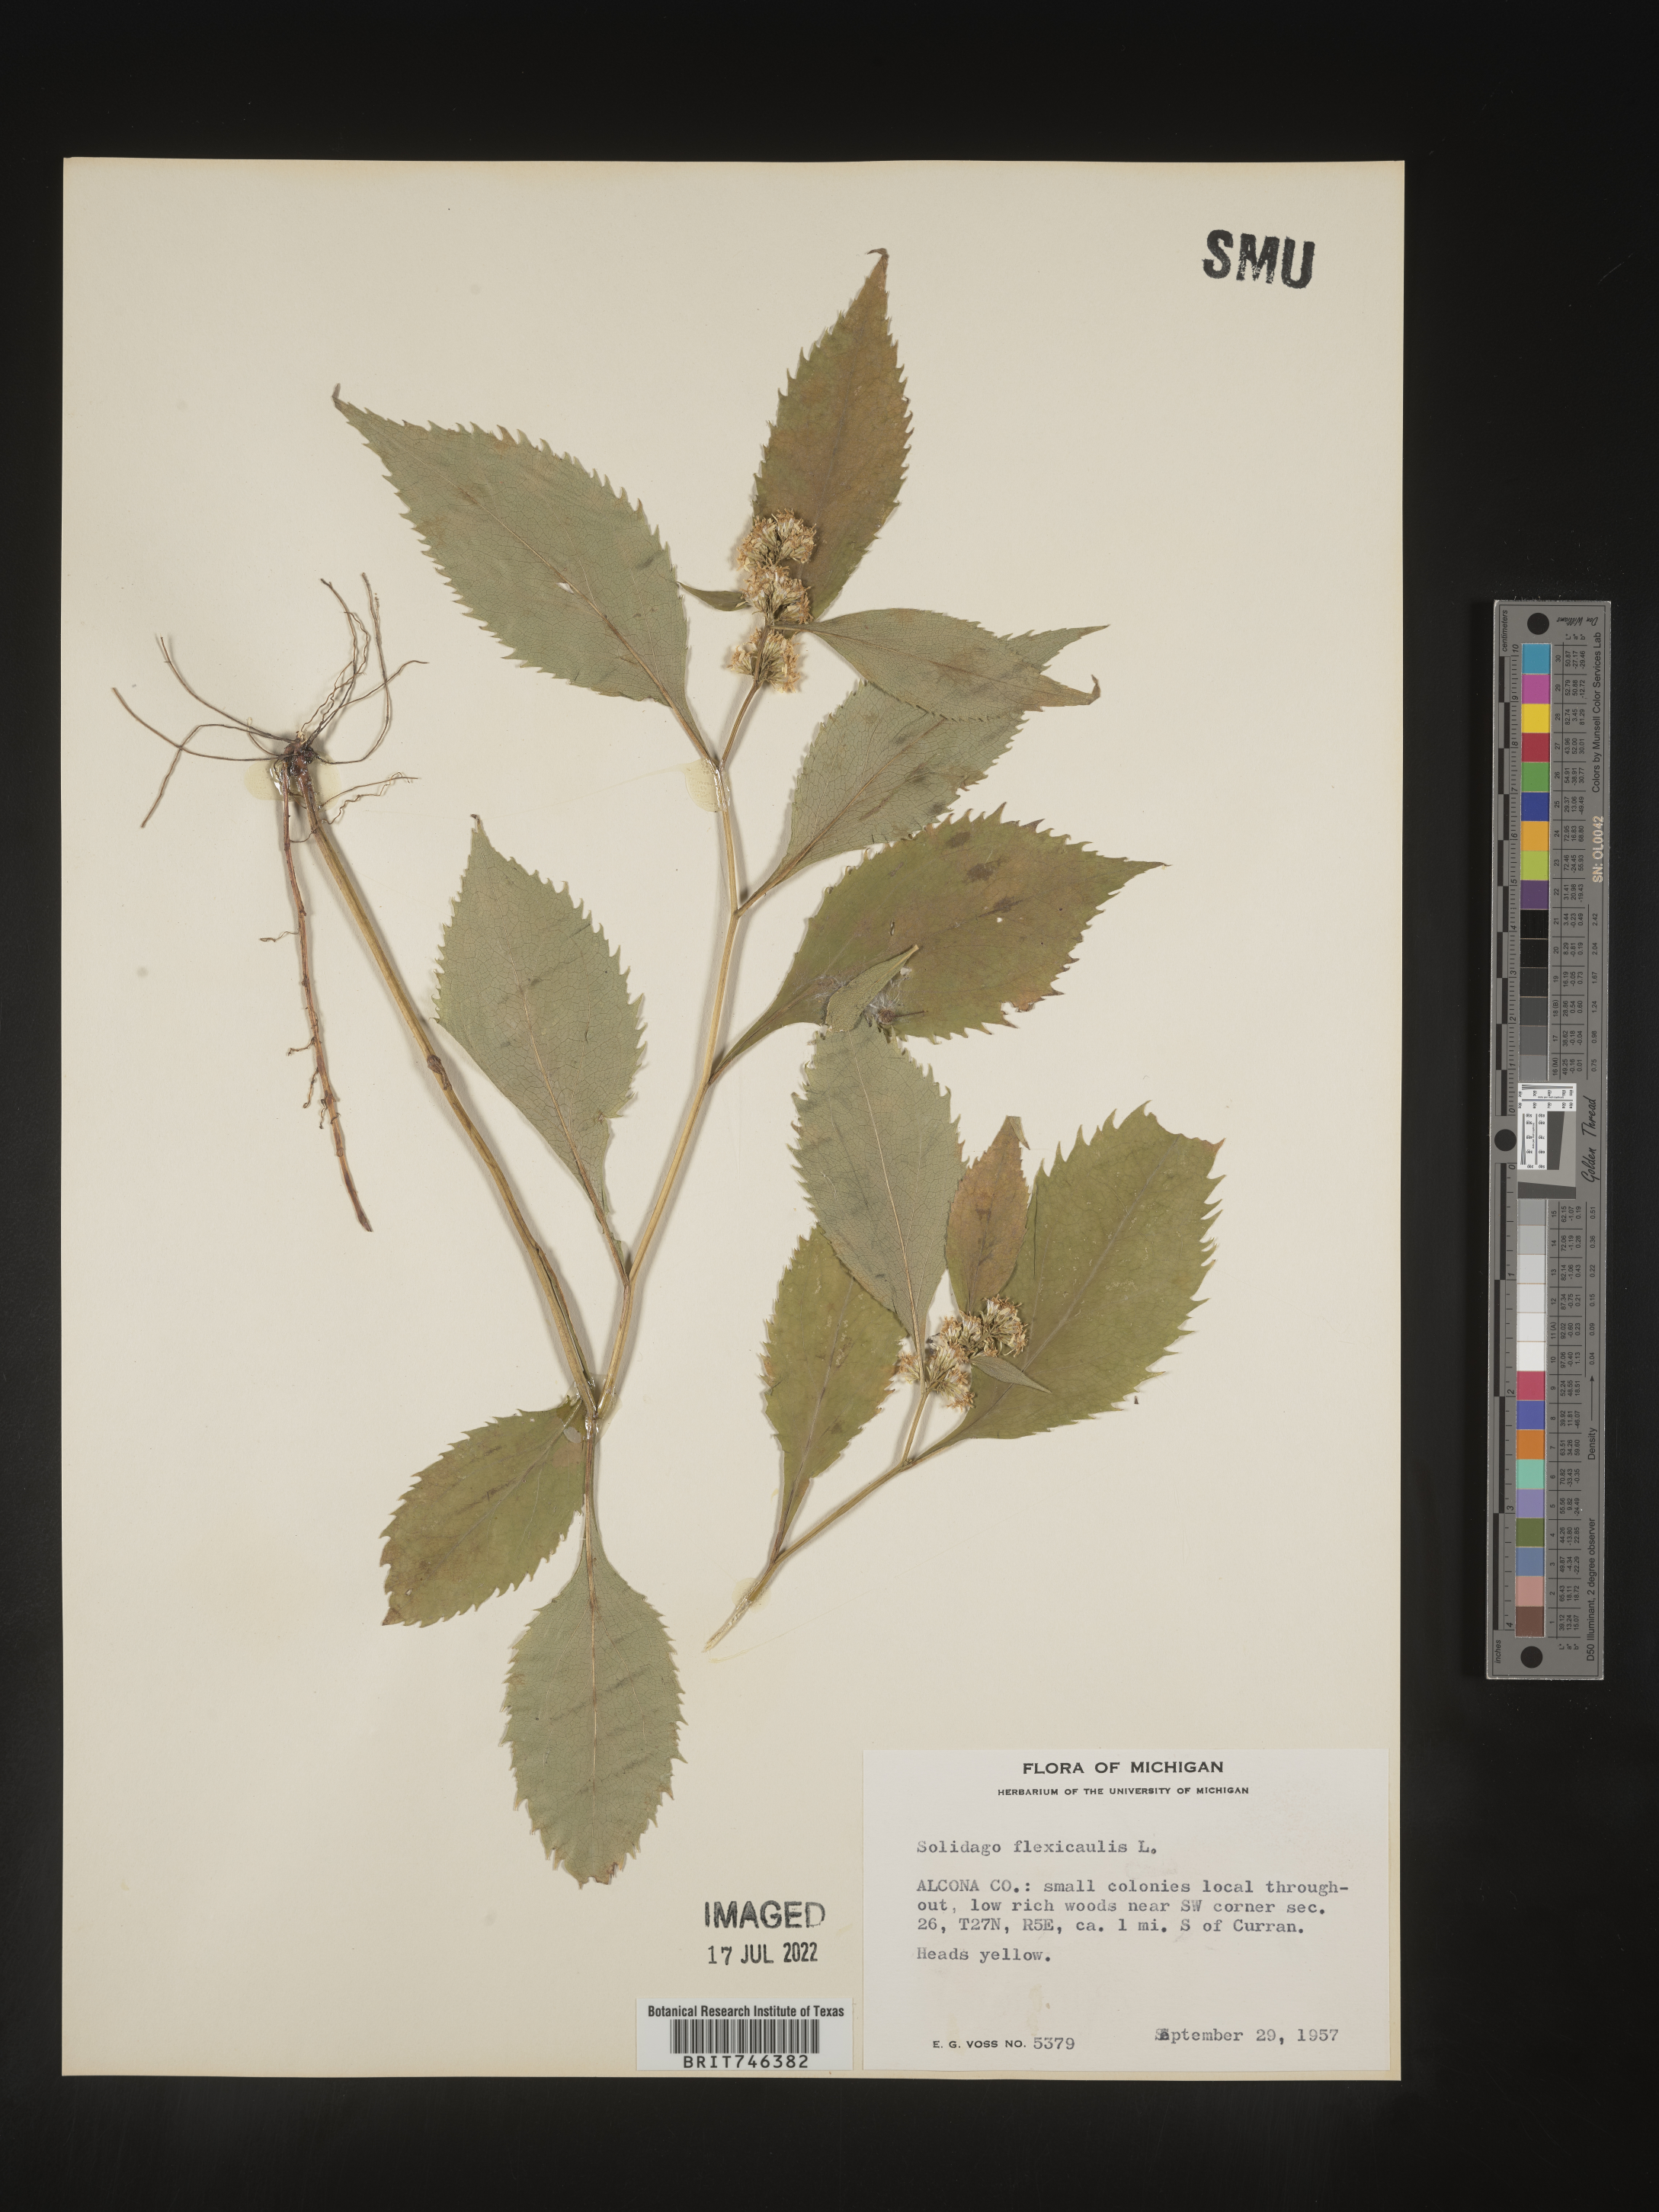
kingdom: Plantae
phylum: Tracheophyta
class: Magnoliopsida
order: Asterales
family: Asteraceae
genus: Solidago
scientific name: Solidago flexicaulis
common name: Zig-zag goldenrod
